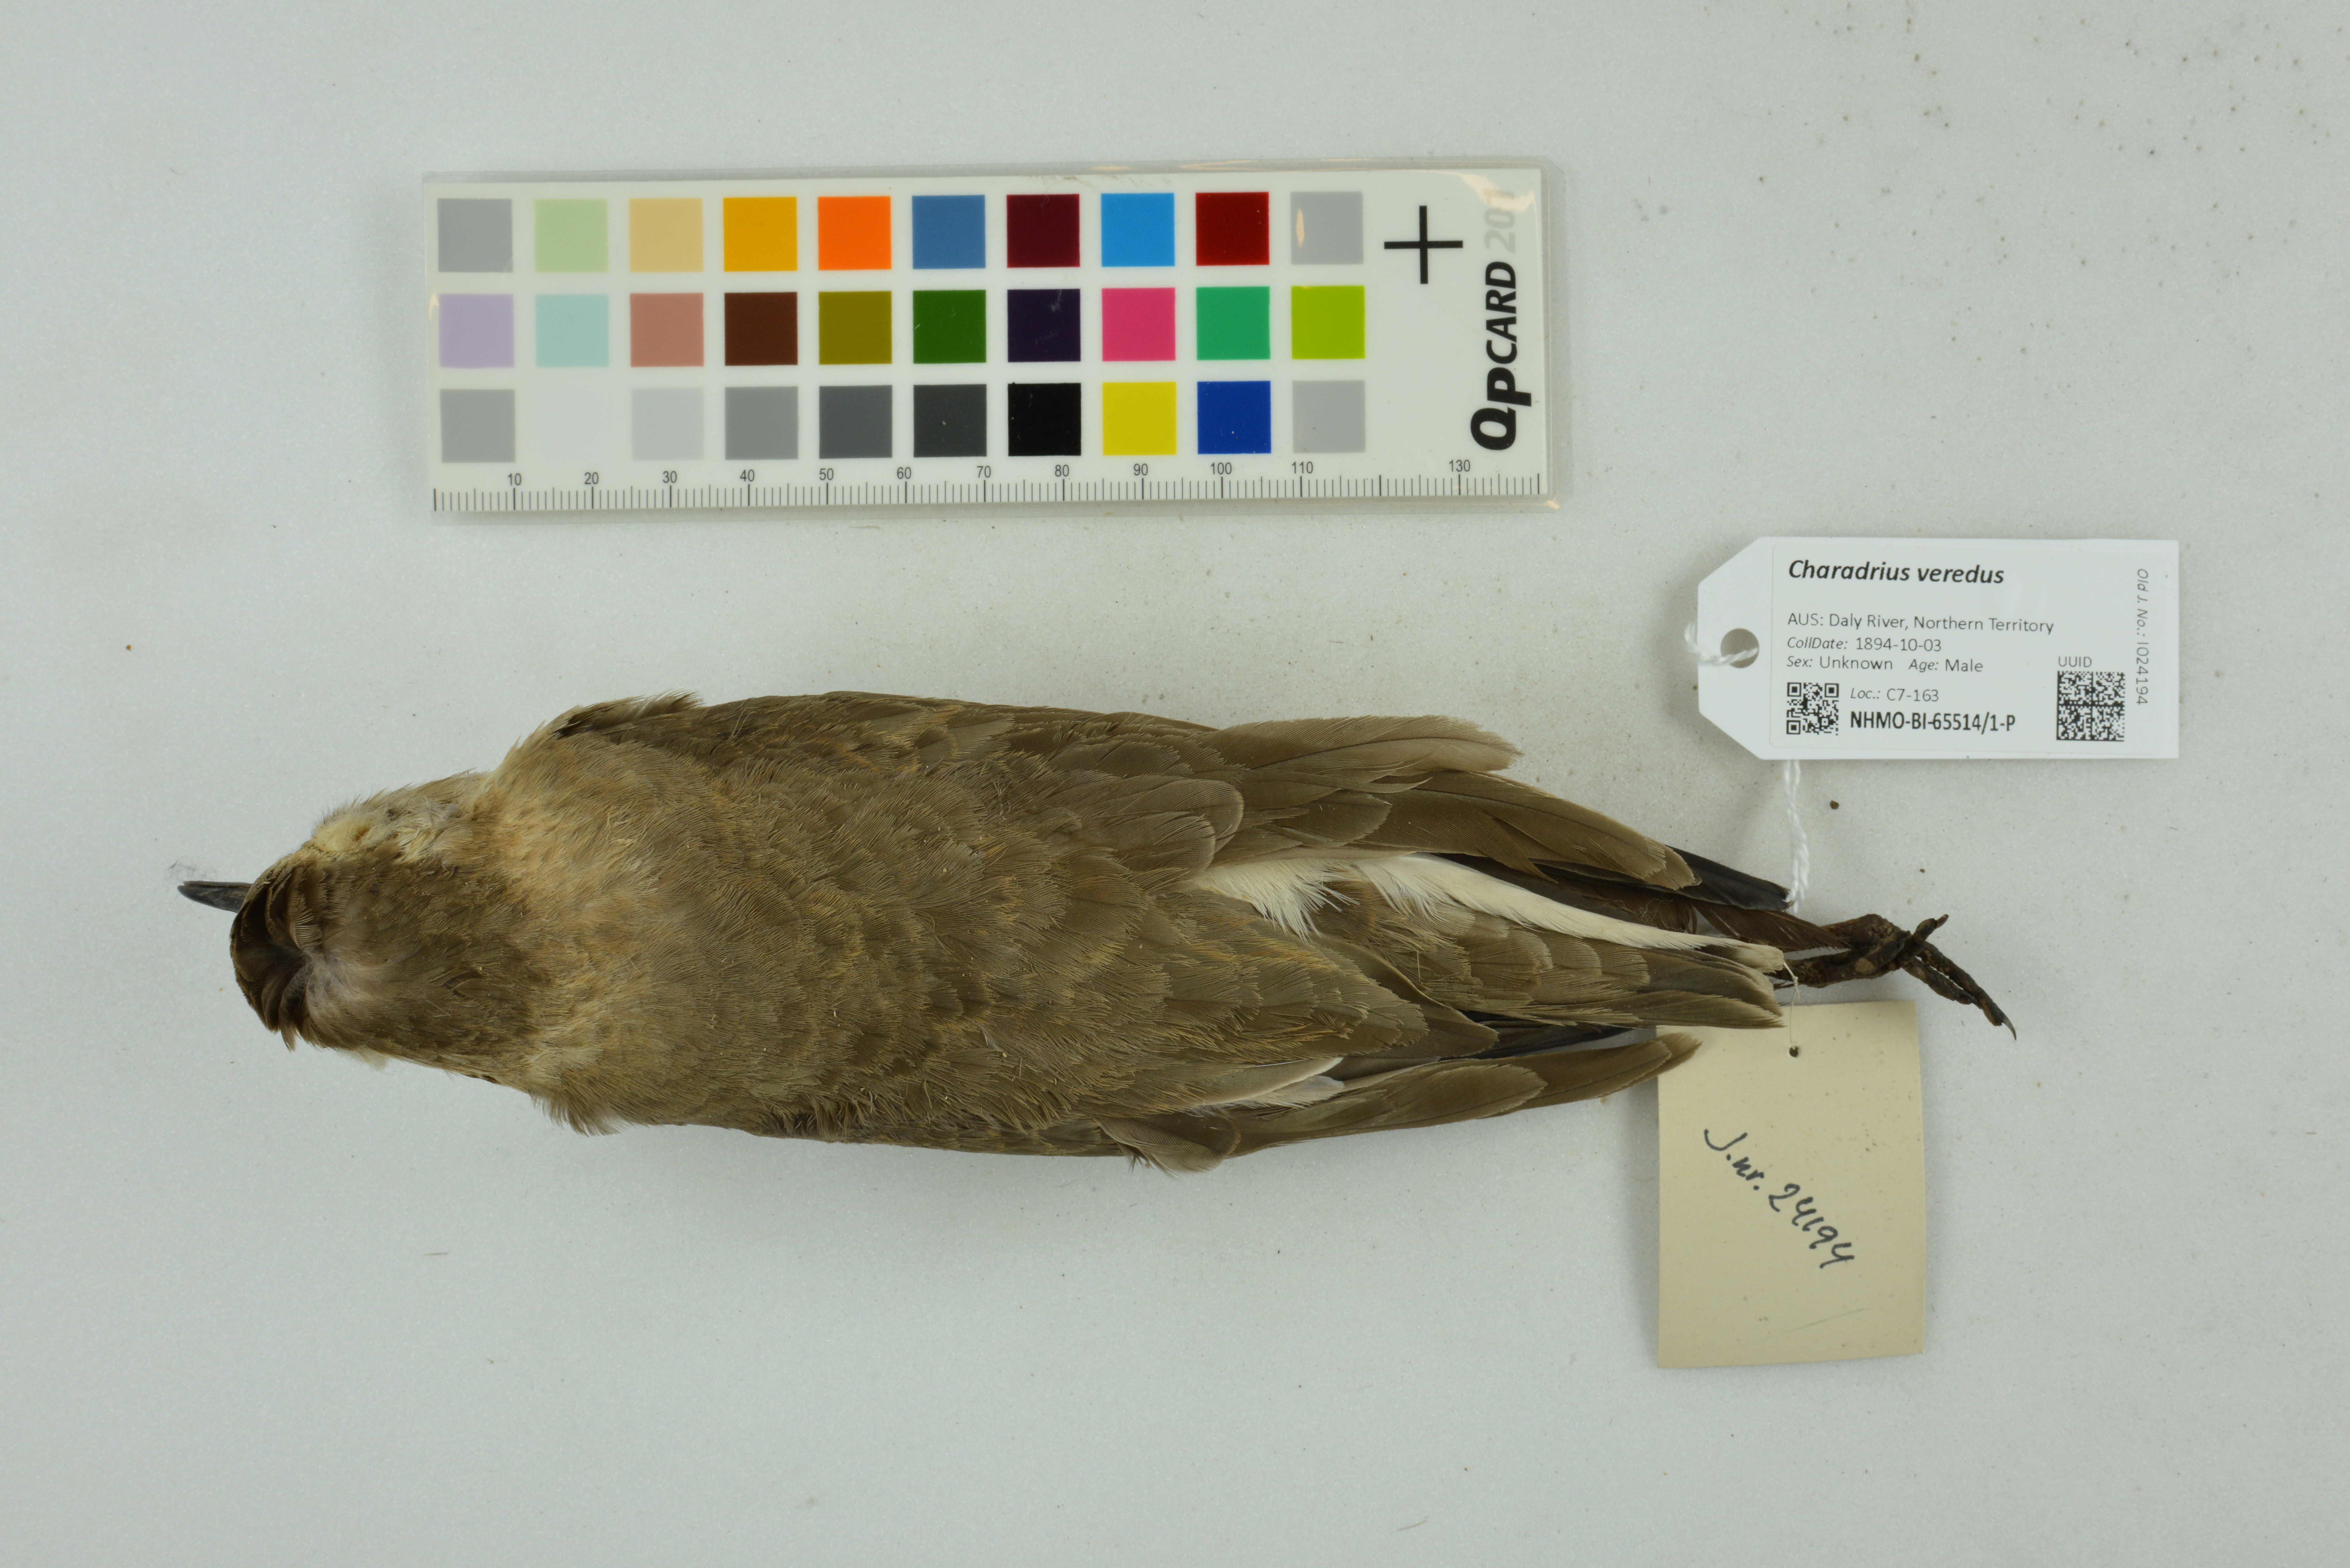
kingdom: Animalia
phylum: Chordata
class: Aves
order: Charadriiformes
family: Charadriidae
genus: Charadrius
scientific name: Charadrius veredus
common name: Oriental plover
